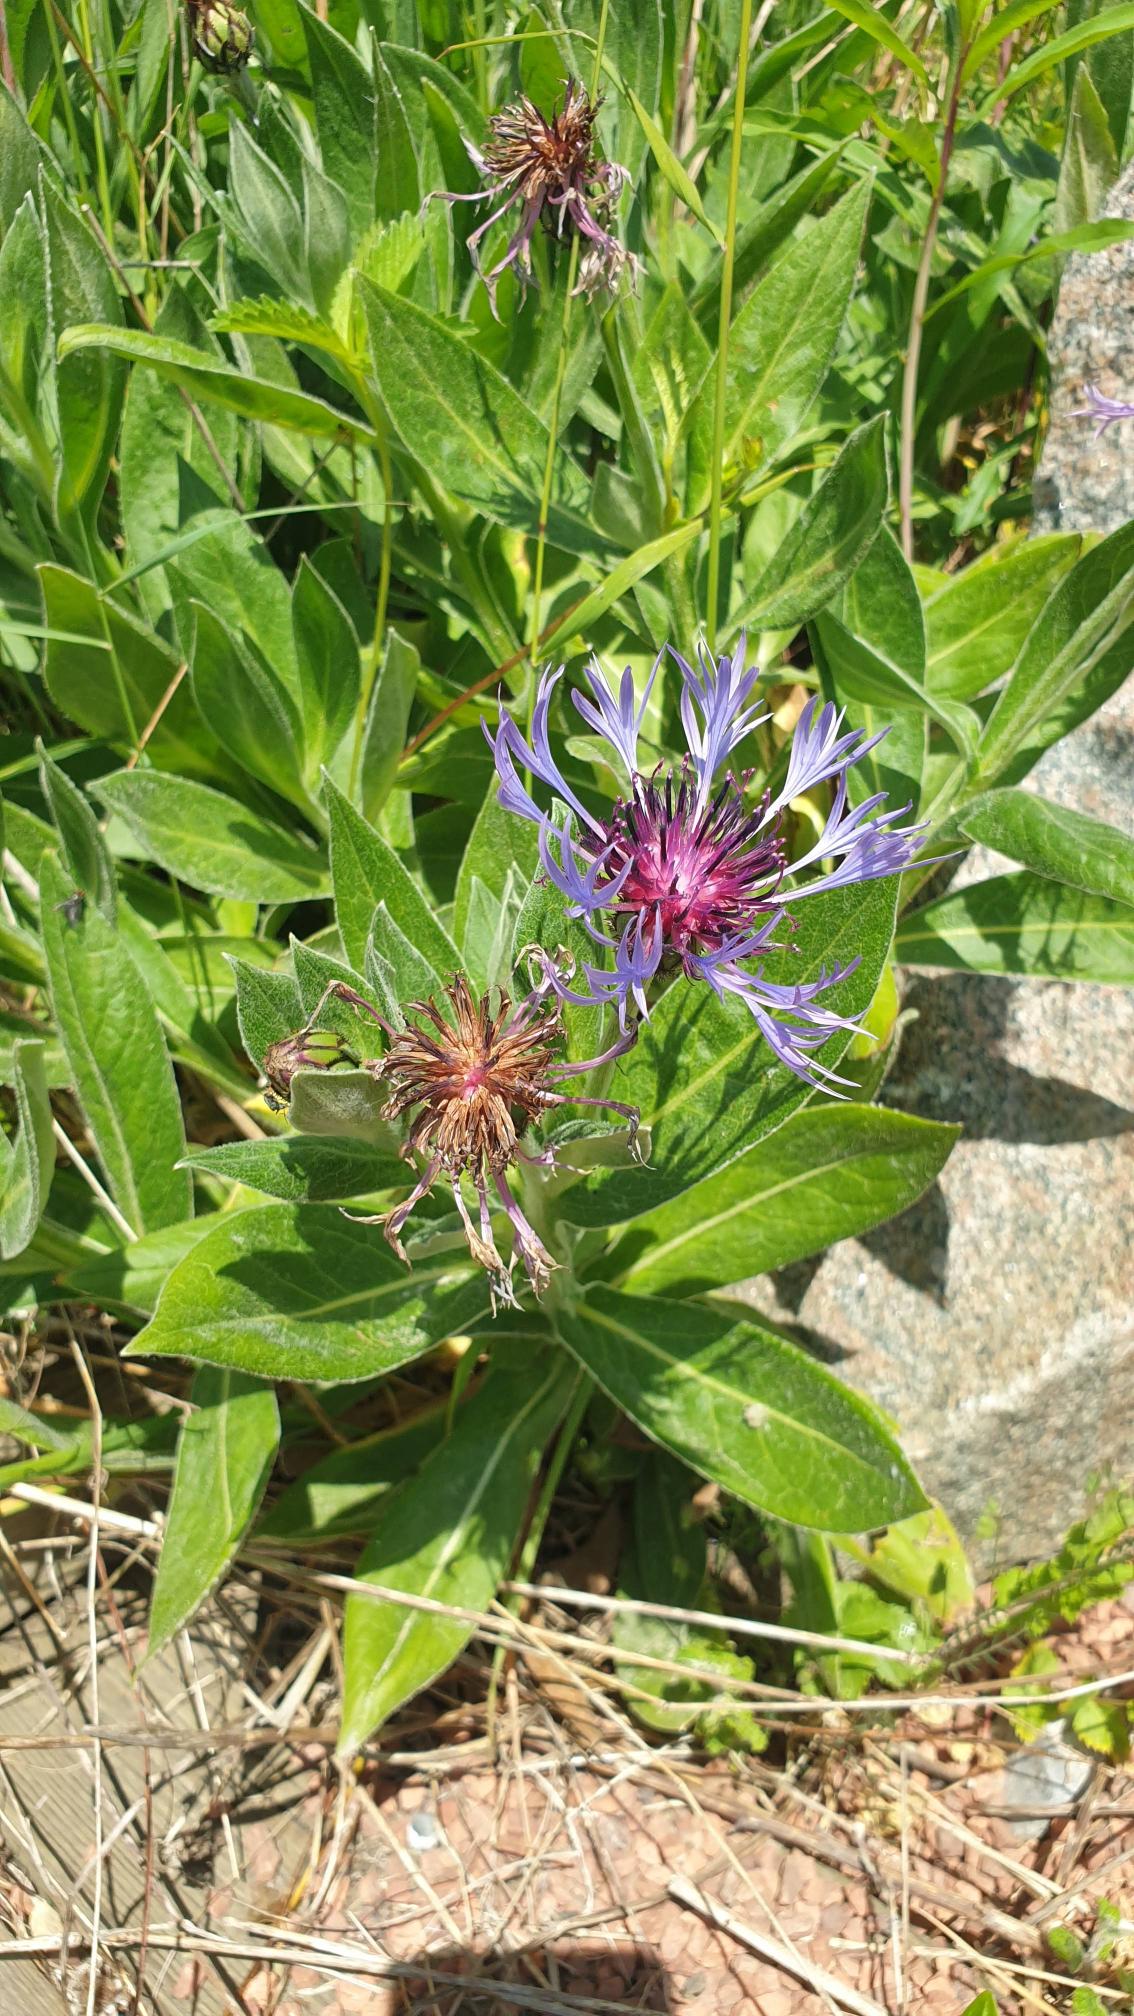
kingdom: Plantae
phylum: Tracheophyta
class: Magnoliopsida
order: Asterales
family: Asteraceae
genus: Centaurea
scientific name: Centaurea montana
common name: Bjerg-knopurt
